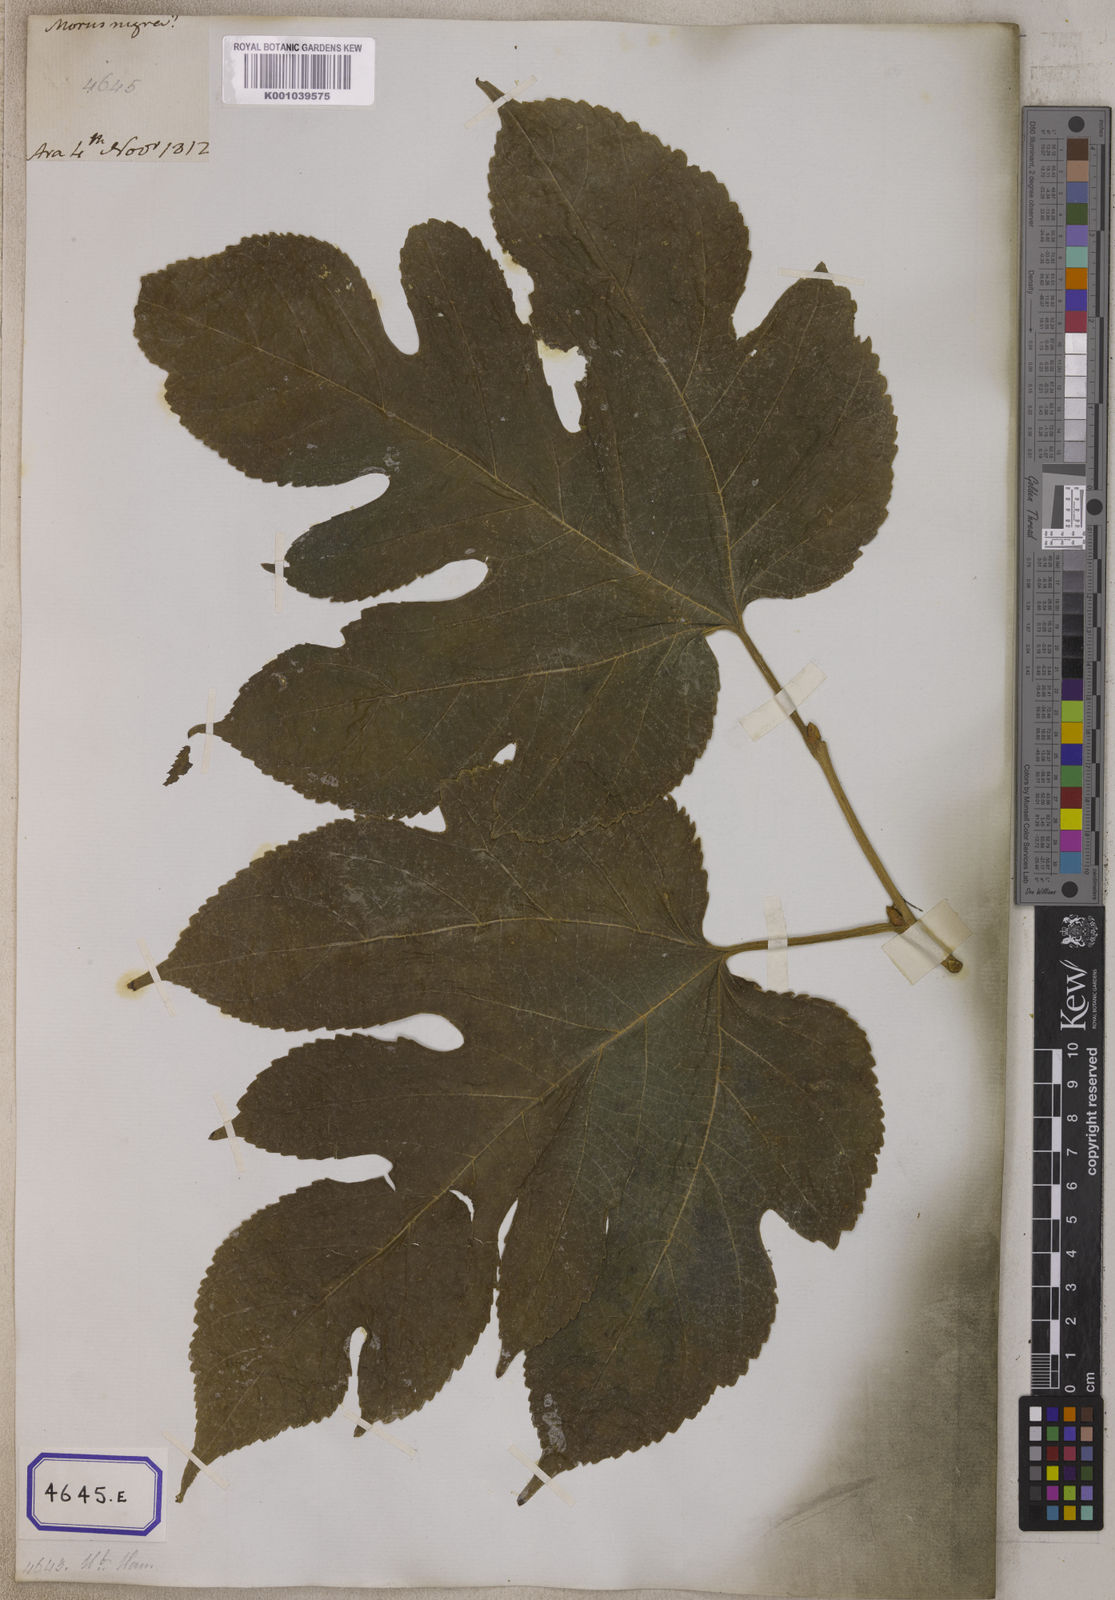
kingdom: Plantae
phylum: Tracheophyta
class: Magnoliopsida
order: Rosales
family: Moraceae
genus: Morus
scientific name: Morus indica
